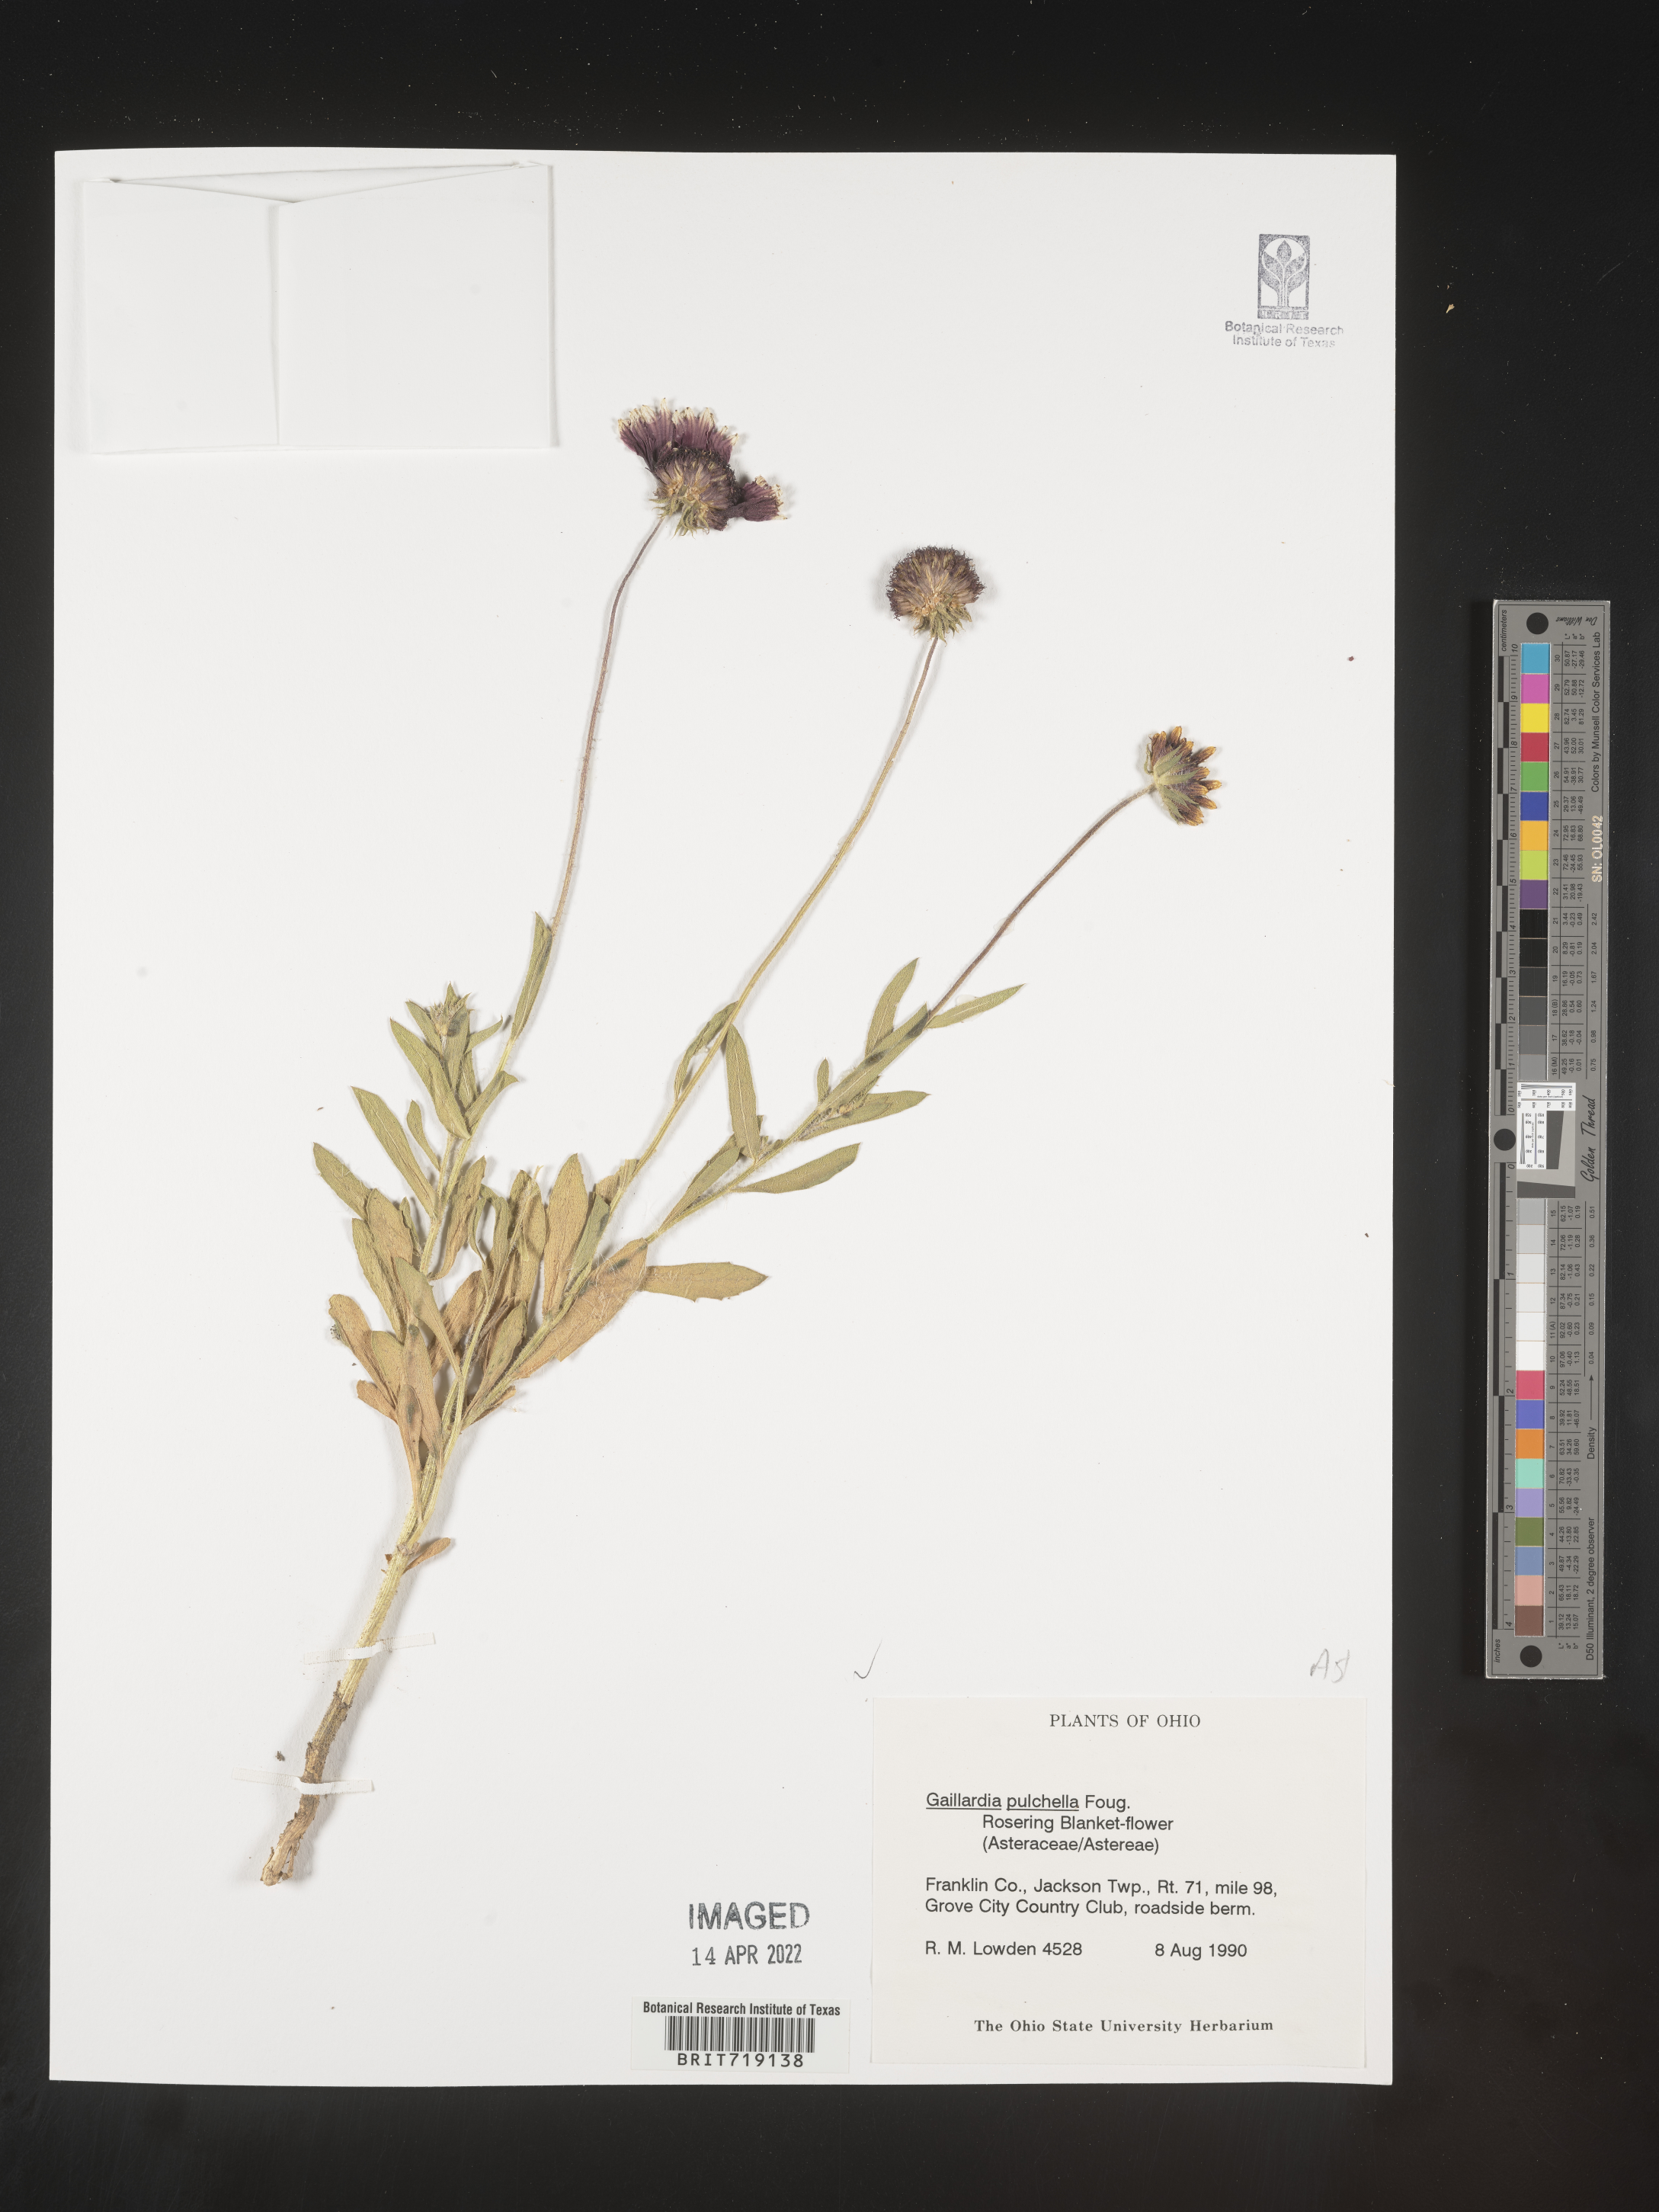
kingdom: Plantae
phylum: Tracheophyta
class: Magnoliopsida
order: Asterales
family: Asteraceae
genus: Gaillardia
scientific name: Gaillardia pulchella
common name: Firewheel
